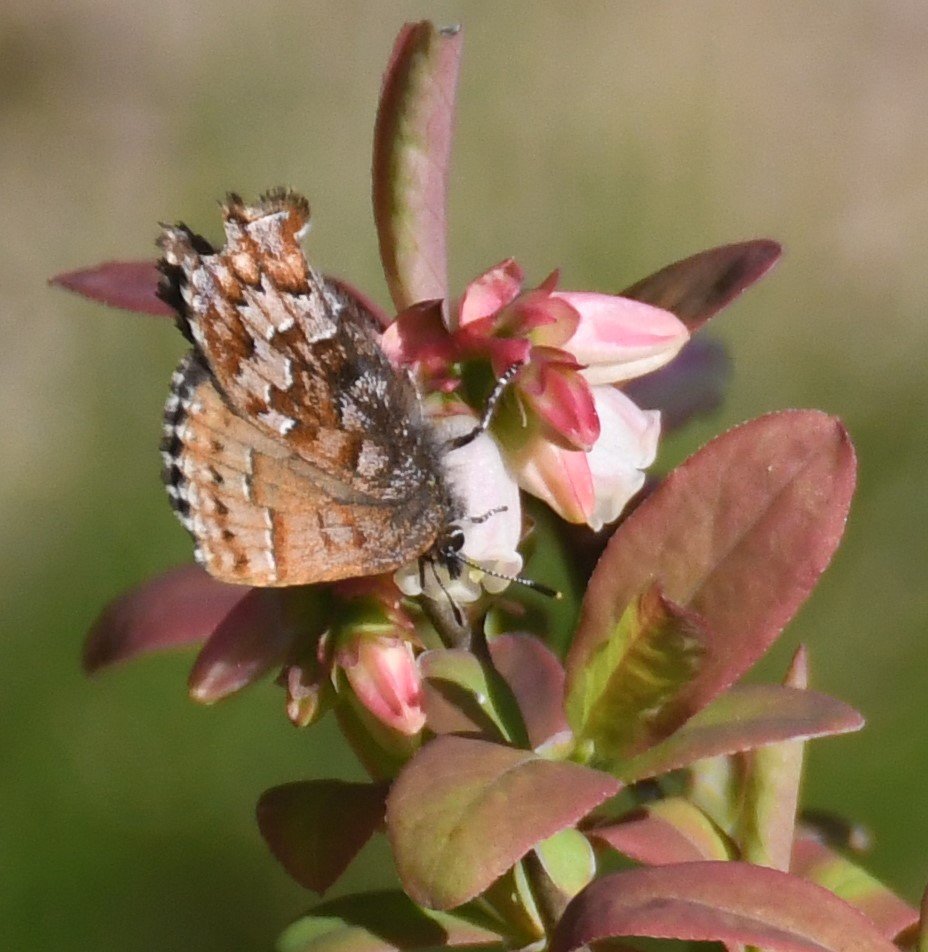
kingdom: Animalia
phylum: Arthropoda
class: Insecta
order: Lepidoptera
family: Lycaenidae
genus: Incisalia
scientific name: Incisalia niphon
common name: Eastern Pine Elfin
